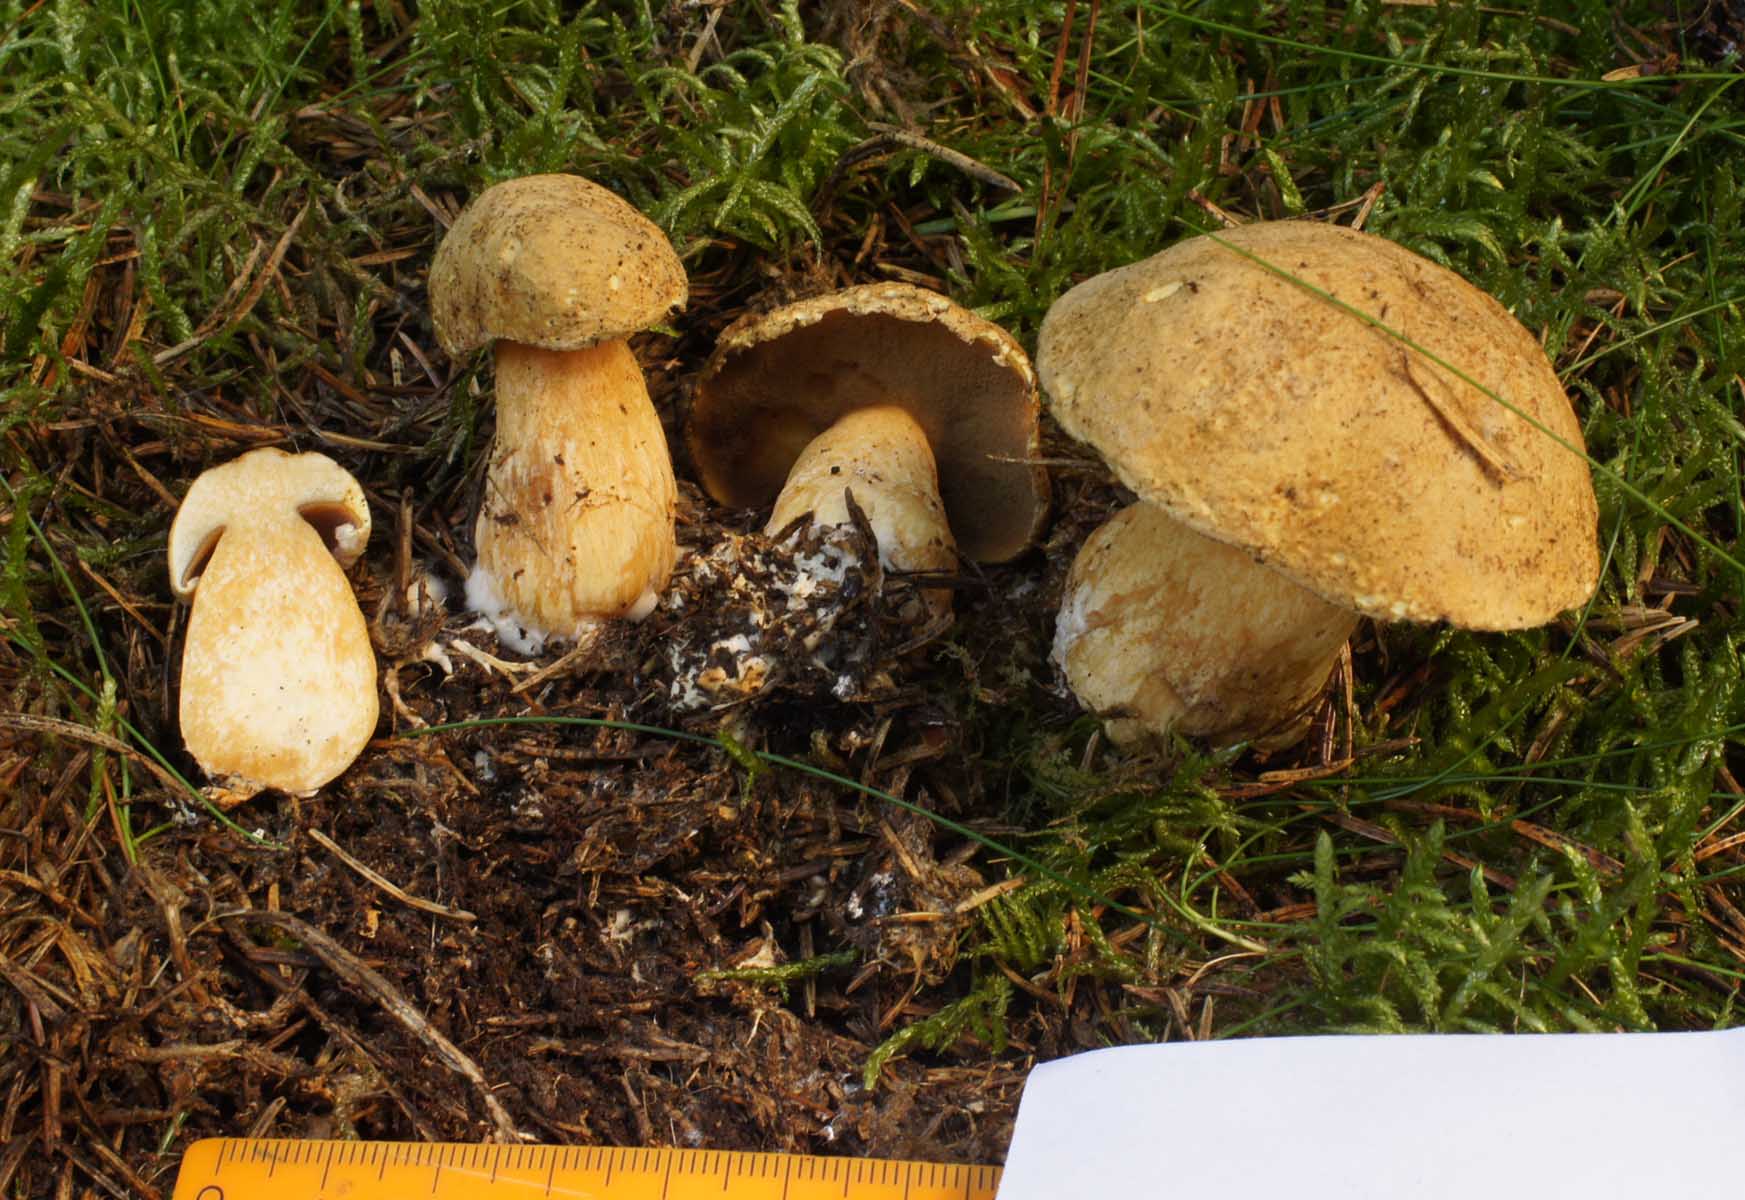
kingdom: Fungi
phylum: Basidiomycota
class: Agaricomycetes
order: Boletales
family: Suillaceae
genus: Suillus
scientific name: Suillus variegatus
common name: broget slimrørhat
